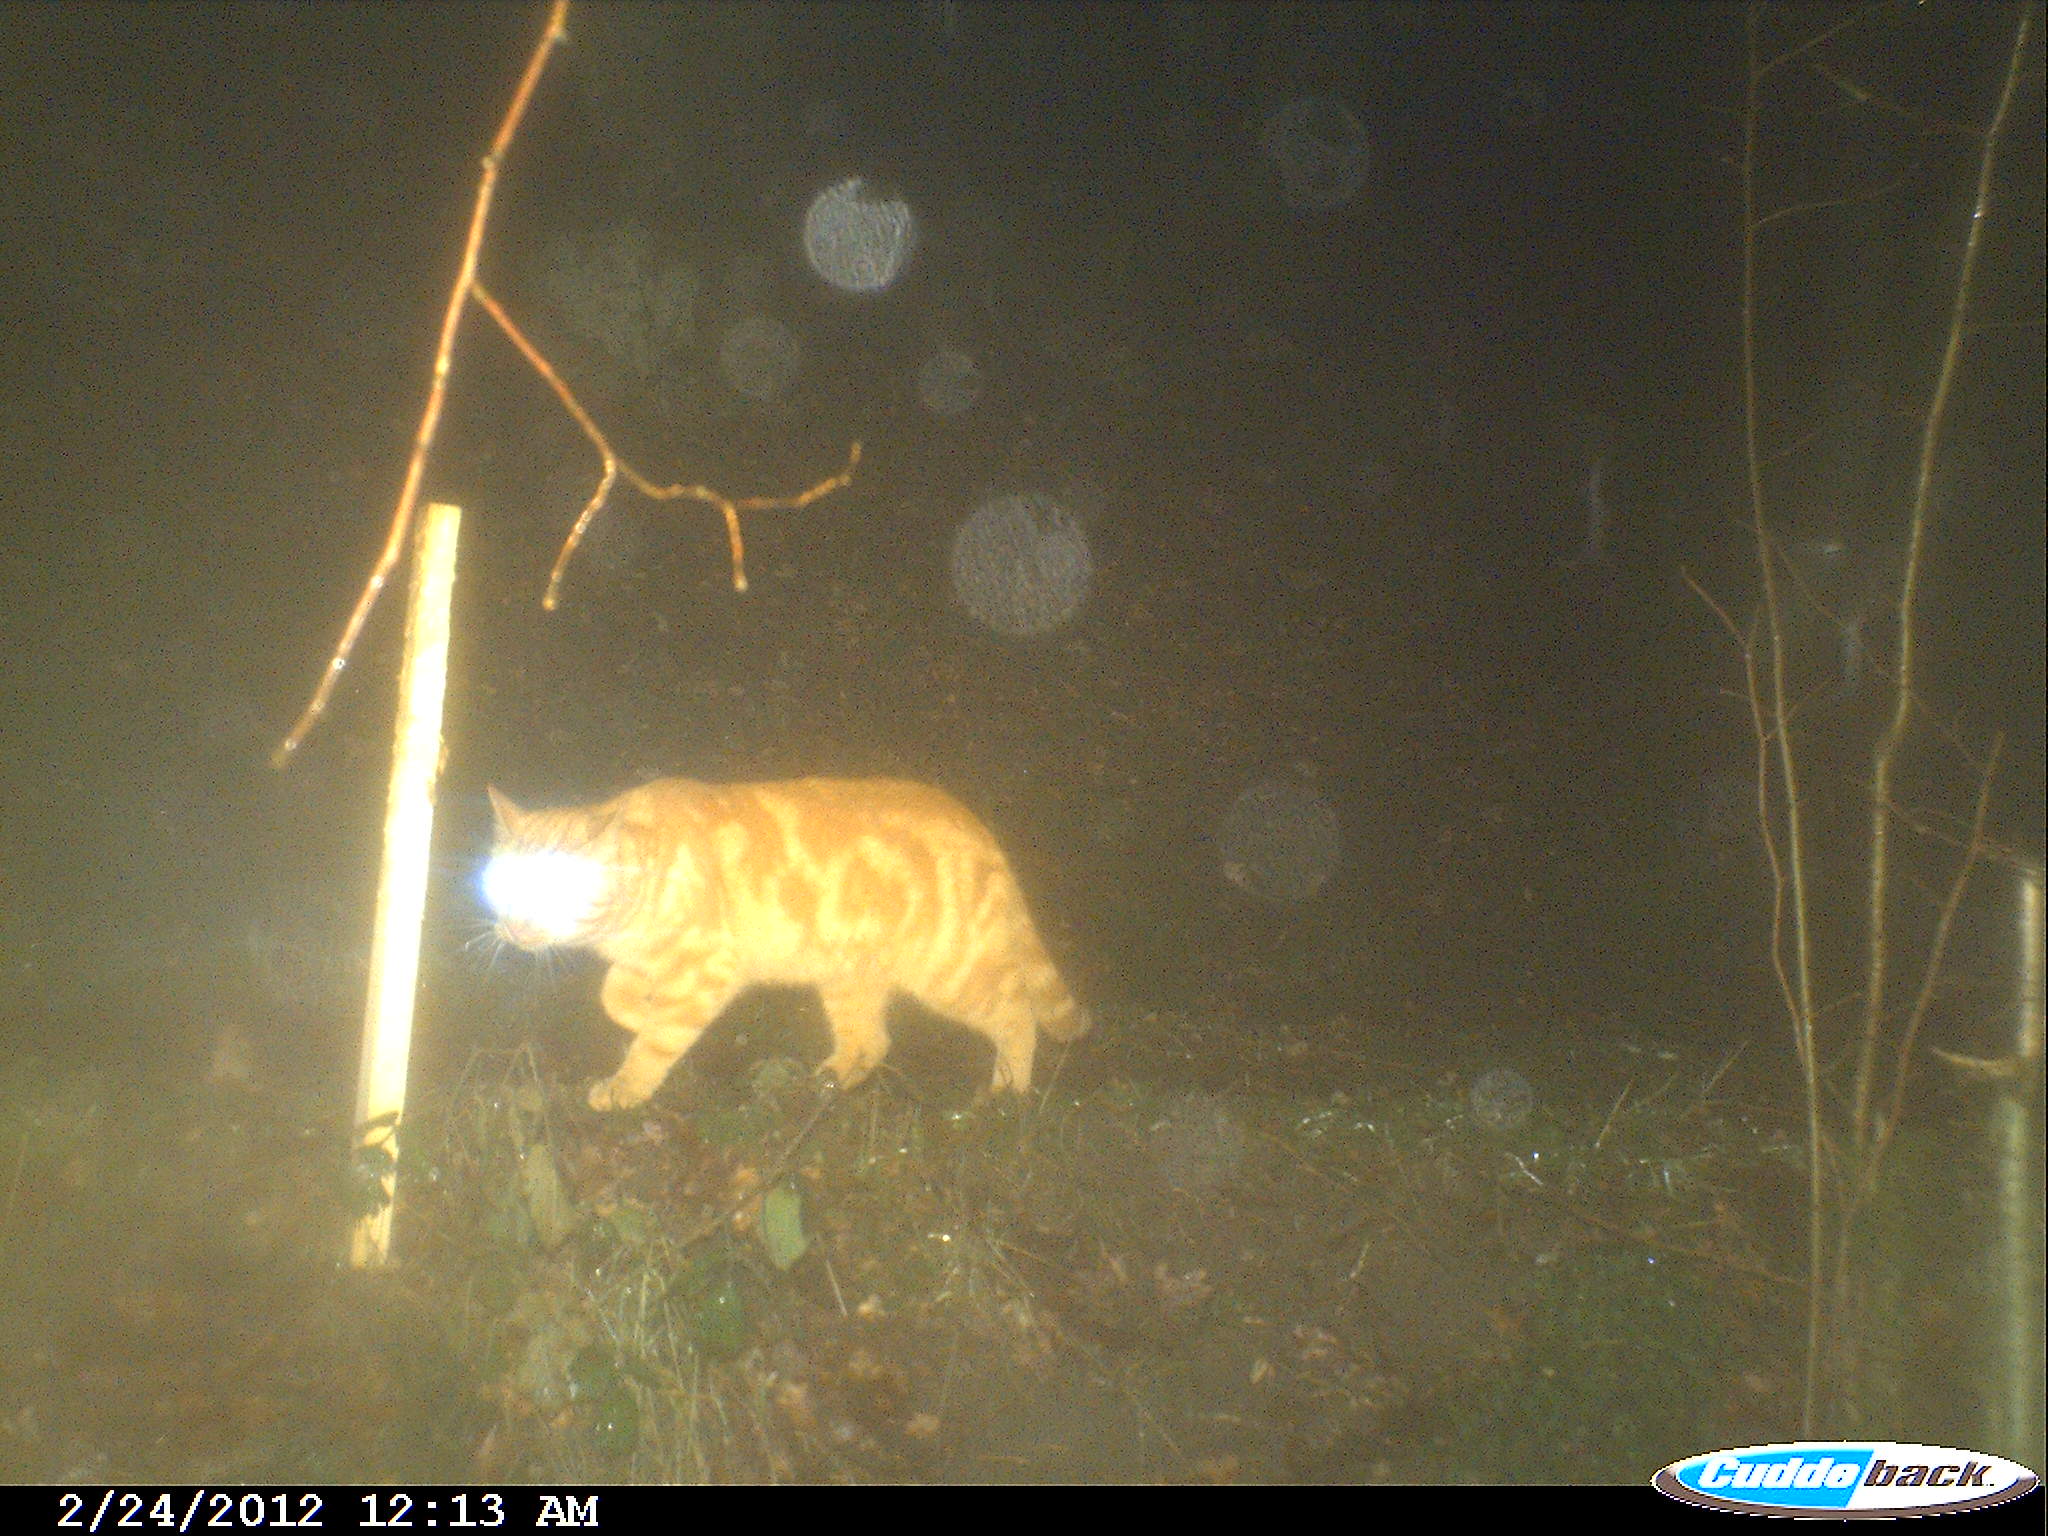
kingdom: Animalia
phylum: Chordata
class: Mammalia
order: Carnivora
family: Felidae
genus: Felis
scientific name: Felis catus
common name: Domestic cat
